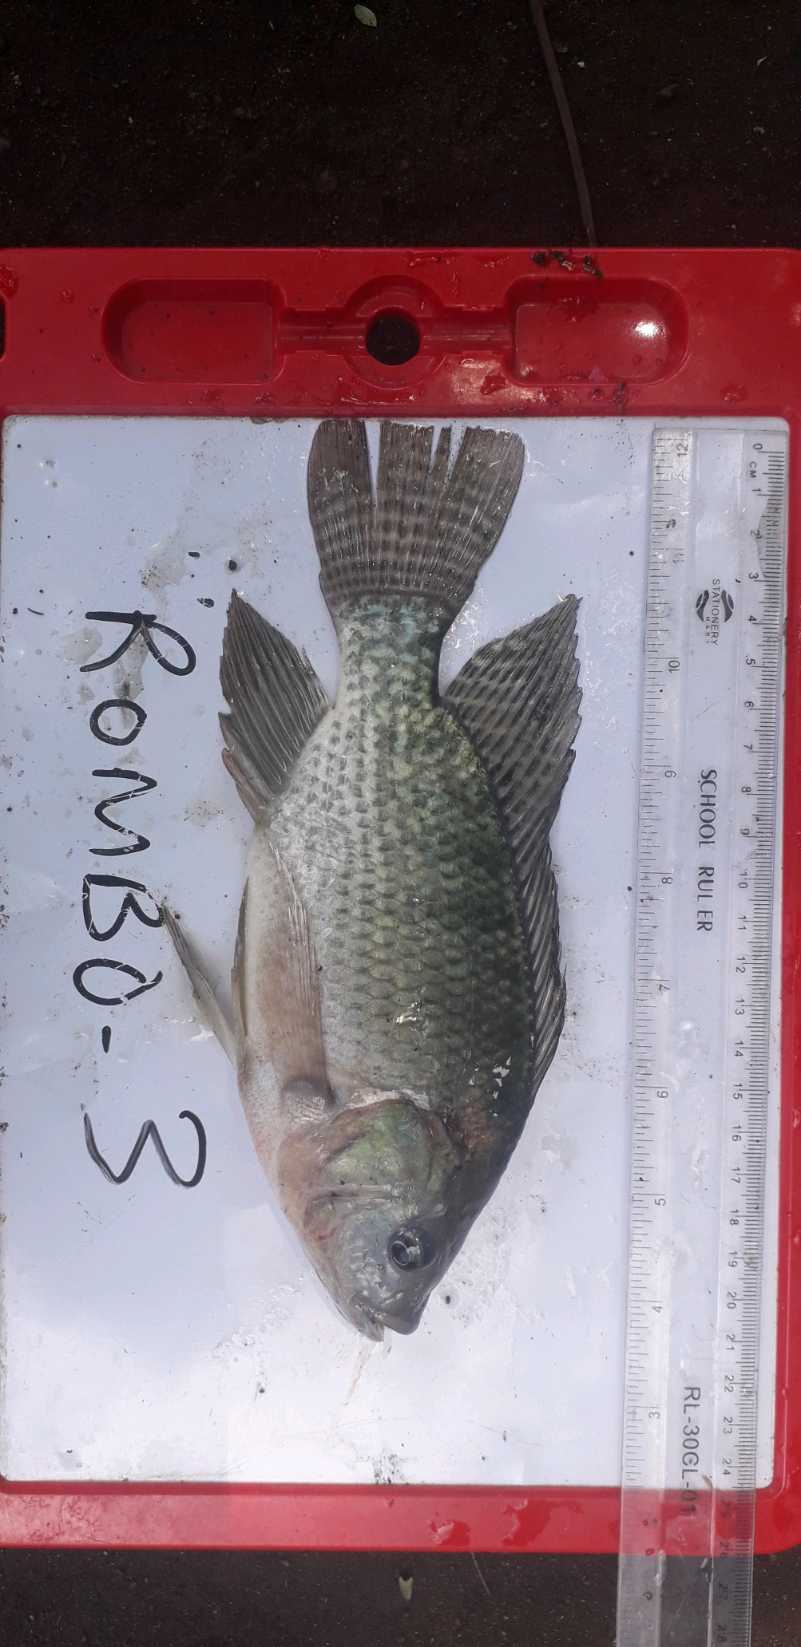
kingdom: Animalia
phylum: Chordata
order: Perciformes
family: Cichlidae
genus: Oreochromis
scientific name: Oreochromis niloticus
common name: Nile tilapia
